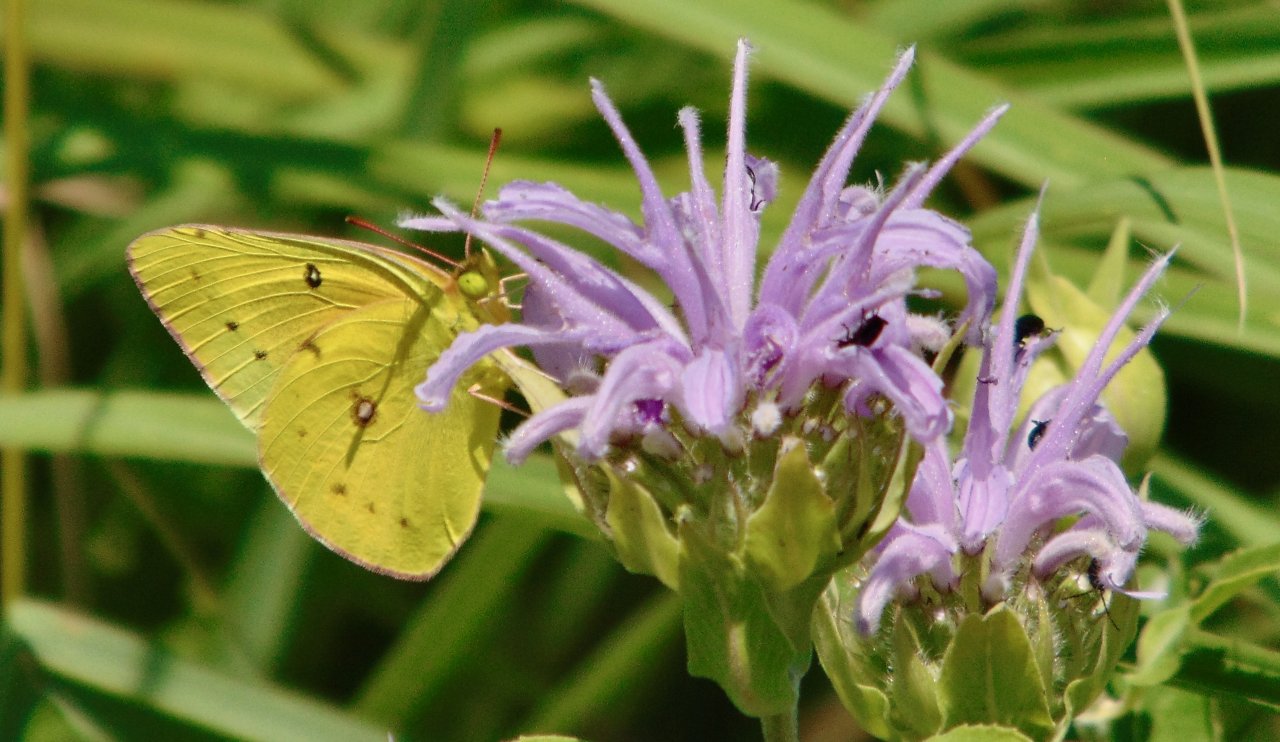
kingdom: Animalia
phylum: Arthropoda
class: Insecta
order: Lepidoptera
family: Pieridae
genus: Colias
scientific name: Colias eurytheme
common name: Orange Sulphur
